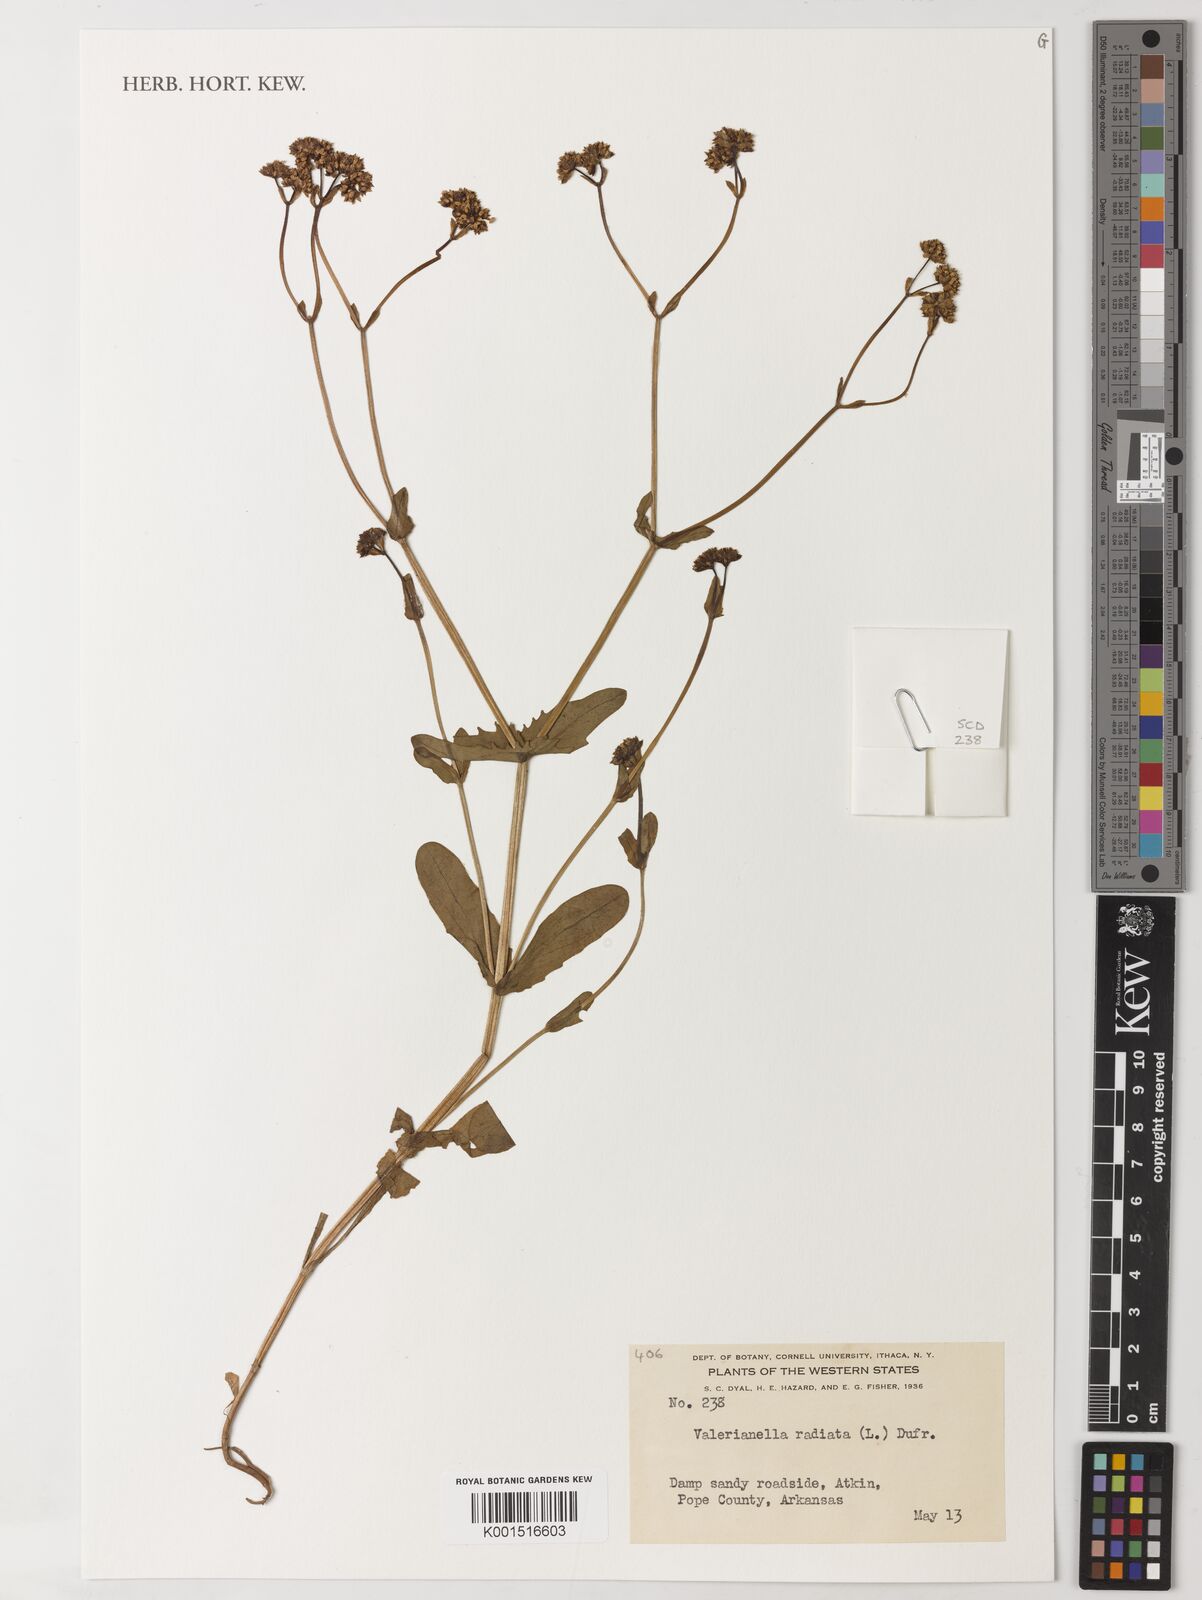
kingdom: Plantae
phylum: Tracheophyta
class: Magnoliopsida
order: Dipsacales
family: Caprifoliaceae
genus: Valerianella
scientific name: Valerianella radiata
